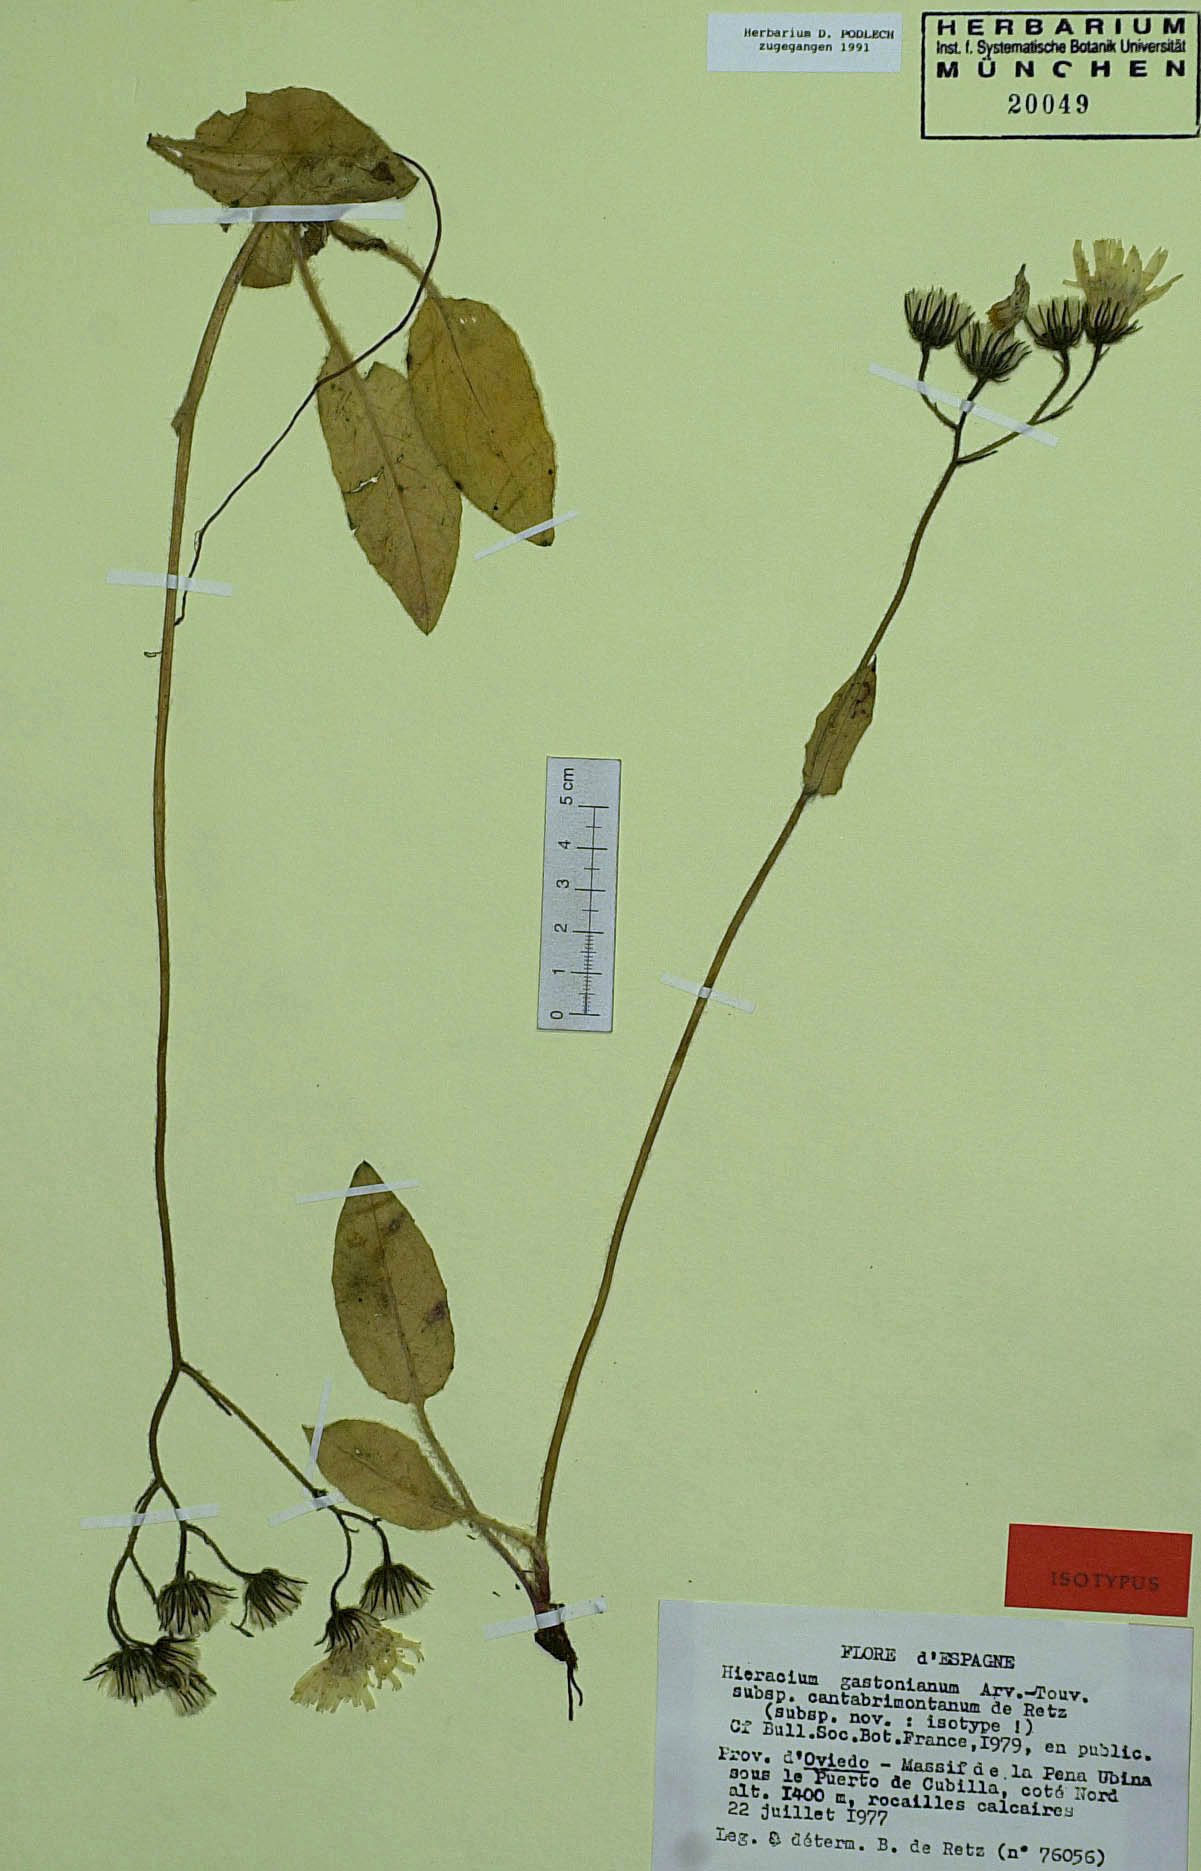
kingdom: Plantae
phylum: Tracheophyta
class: Magnoliopsida
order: Asterales
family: Asteraceae
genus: Hieracium
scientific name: Hieracium legionense
